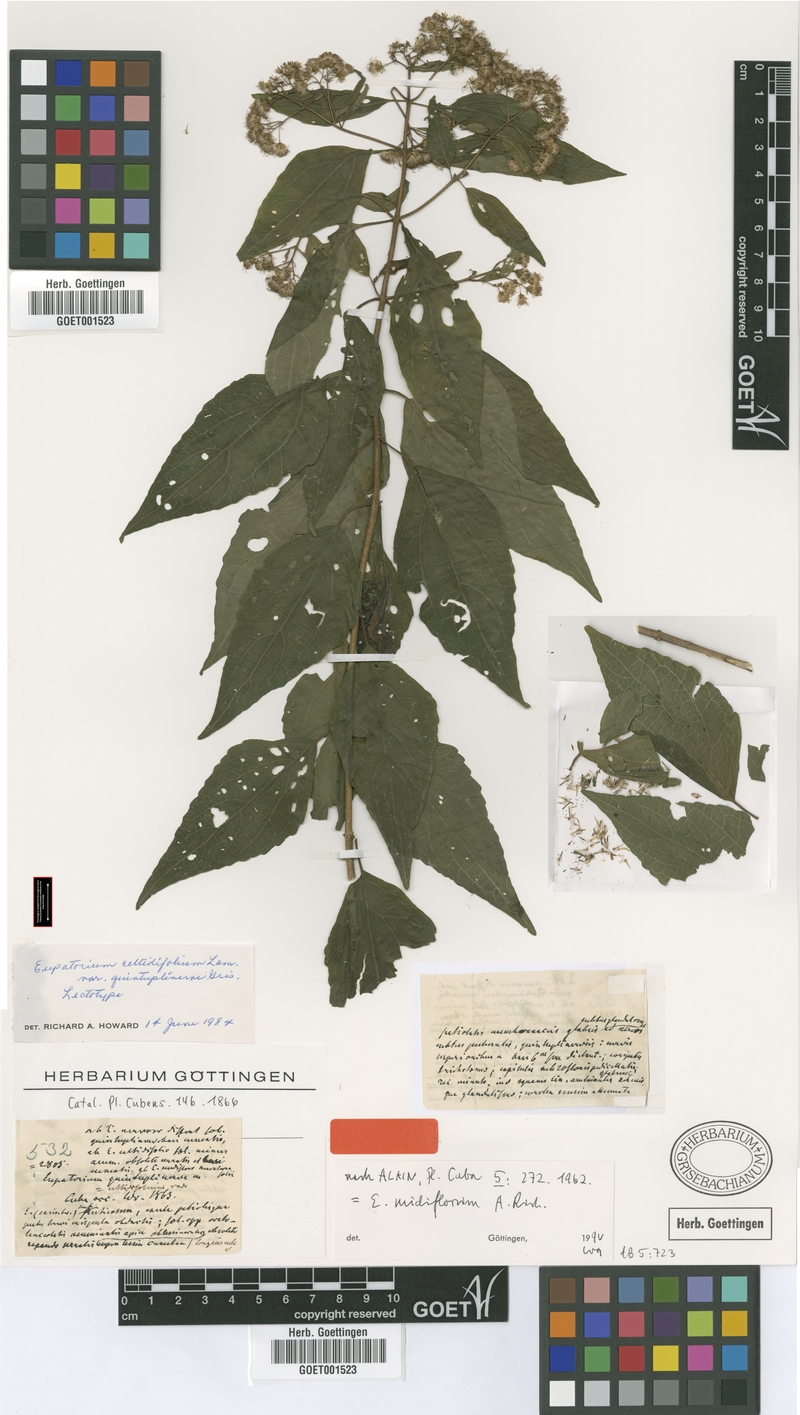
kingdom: Plantae
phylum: Tracheophyta
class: Magnoliopsida
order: Asterales
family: Asteraceae
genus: Koanophyllon
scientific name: Koanophyllon nudiflorum
